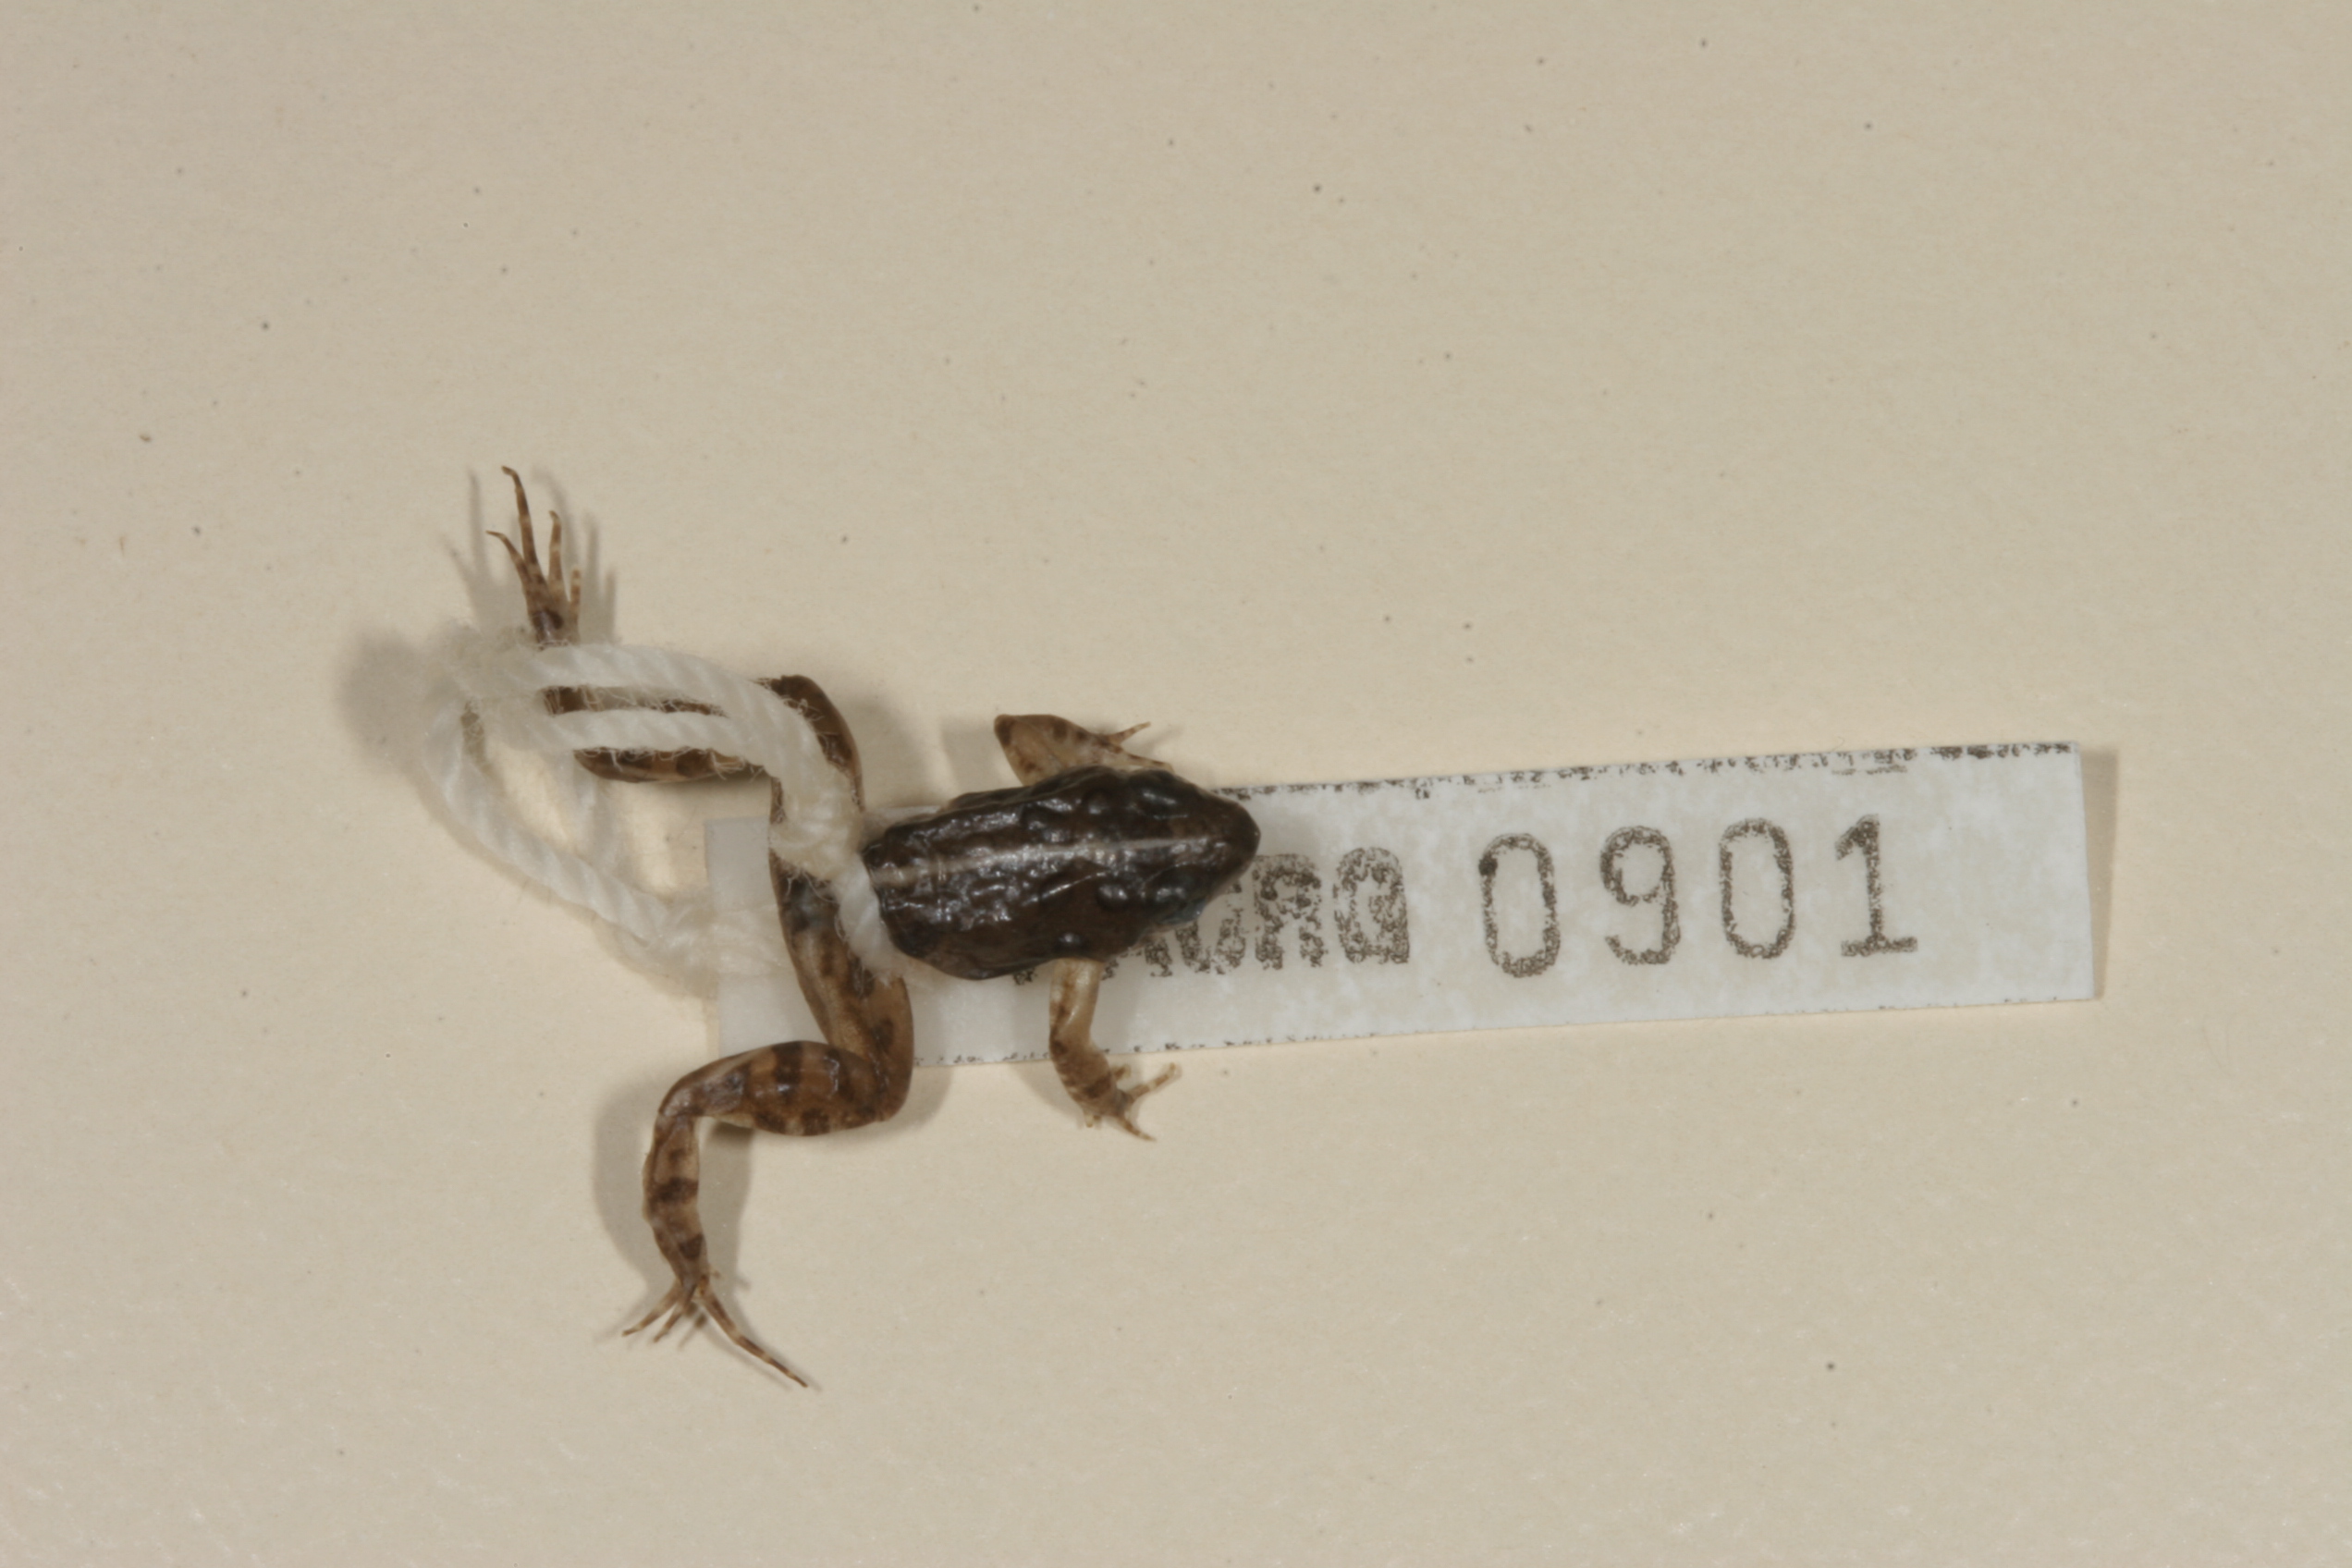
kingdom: Animalia
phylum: Chordata
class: Amphibia
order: Anura
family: Phrynobatrachidae
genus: Phrynobatrachus
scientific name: Phrynobatrachus mababiensis
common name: Dwarf puddle frog
